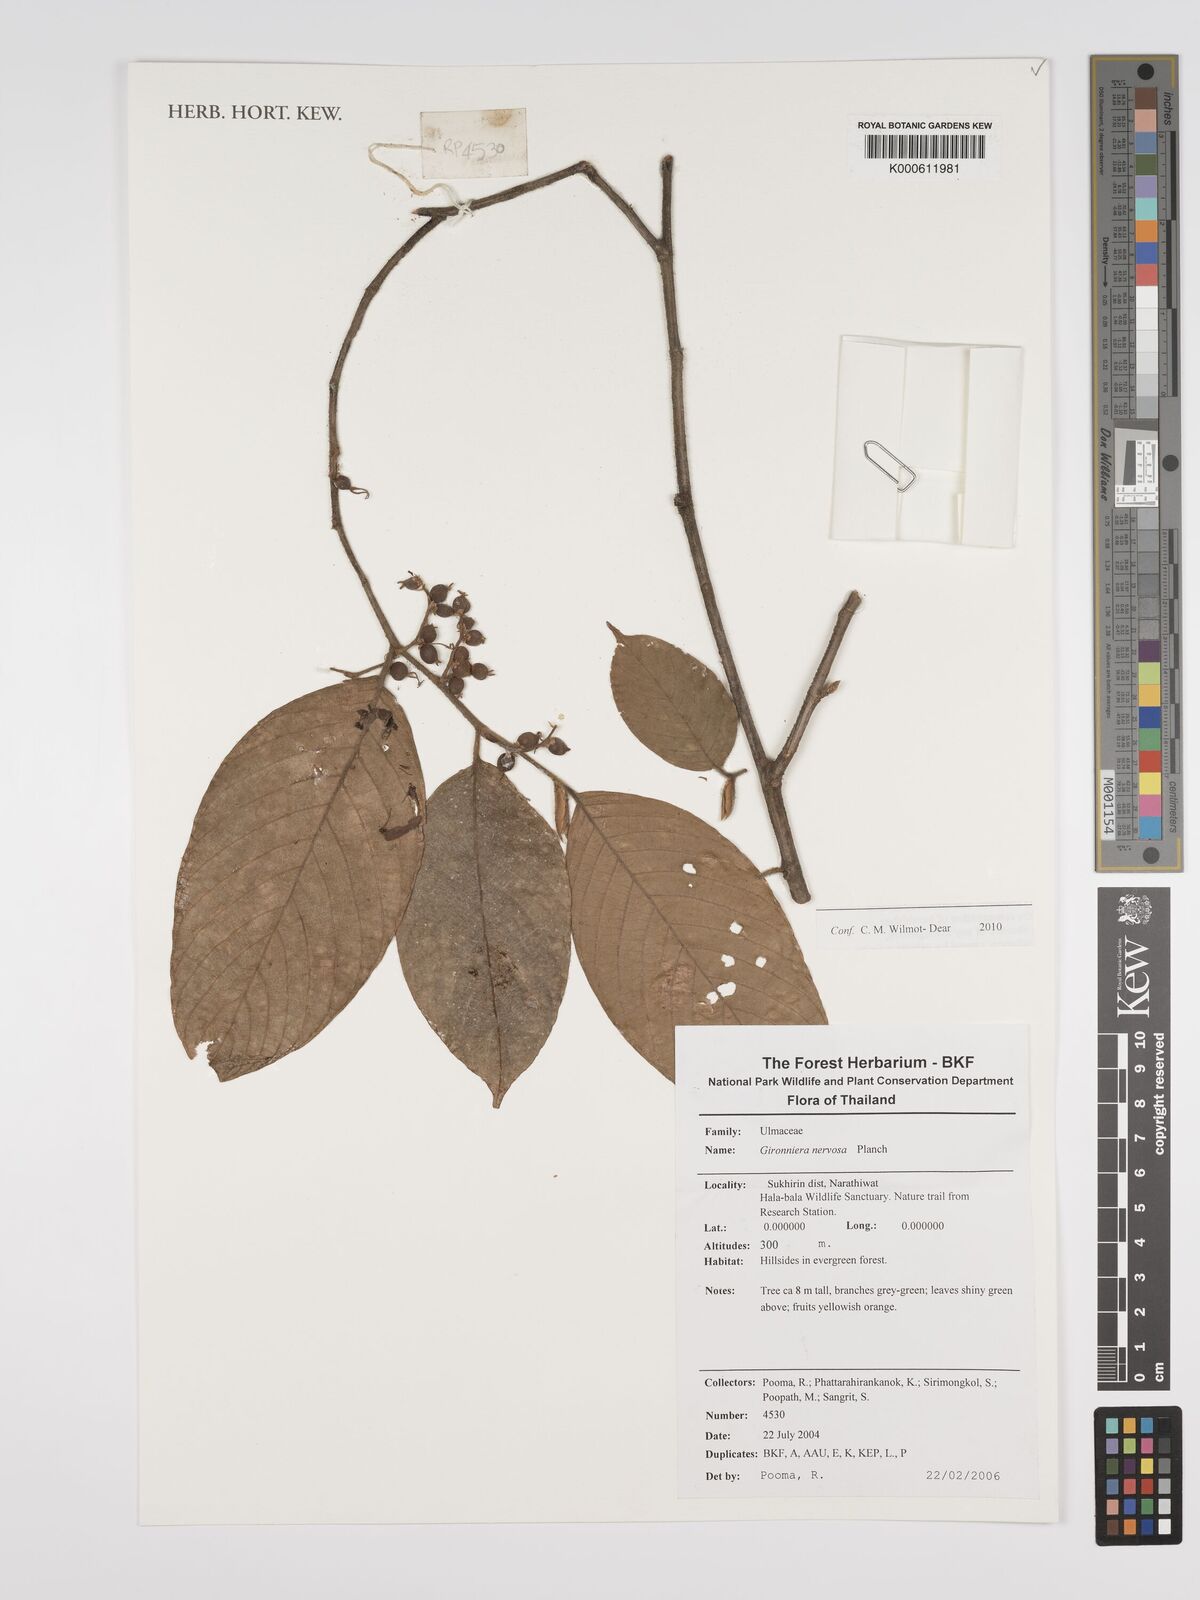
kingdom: Plantae
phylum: Tracheophyta
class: Magnoliopsida
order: Rosales
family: Cannabaceae
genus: Gironniera
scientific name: Gironniera nervosa
